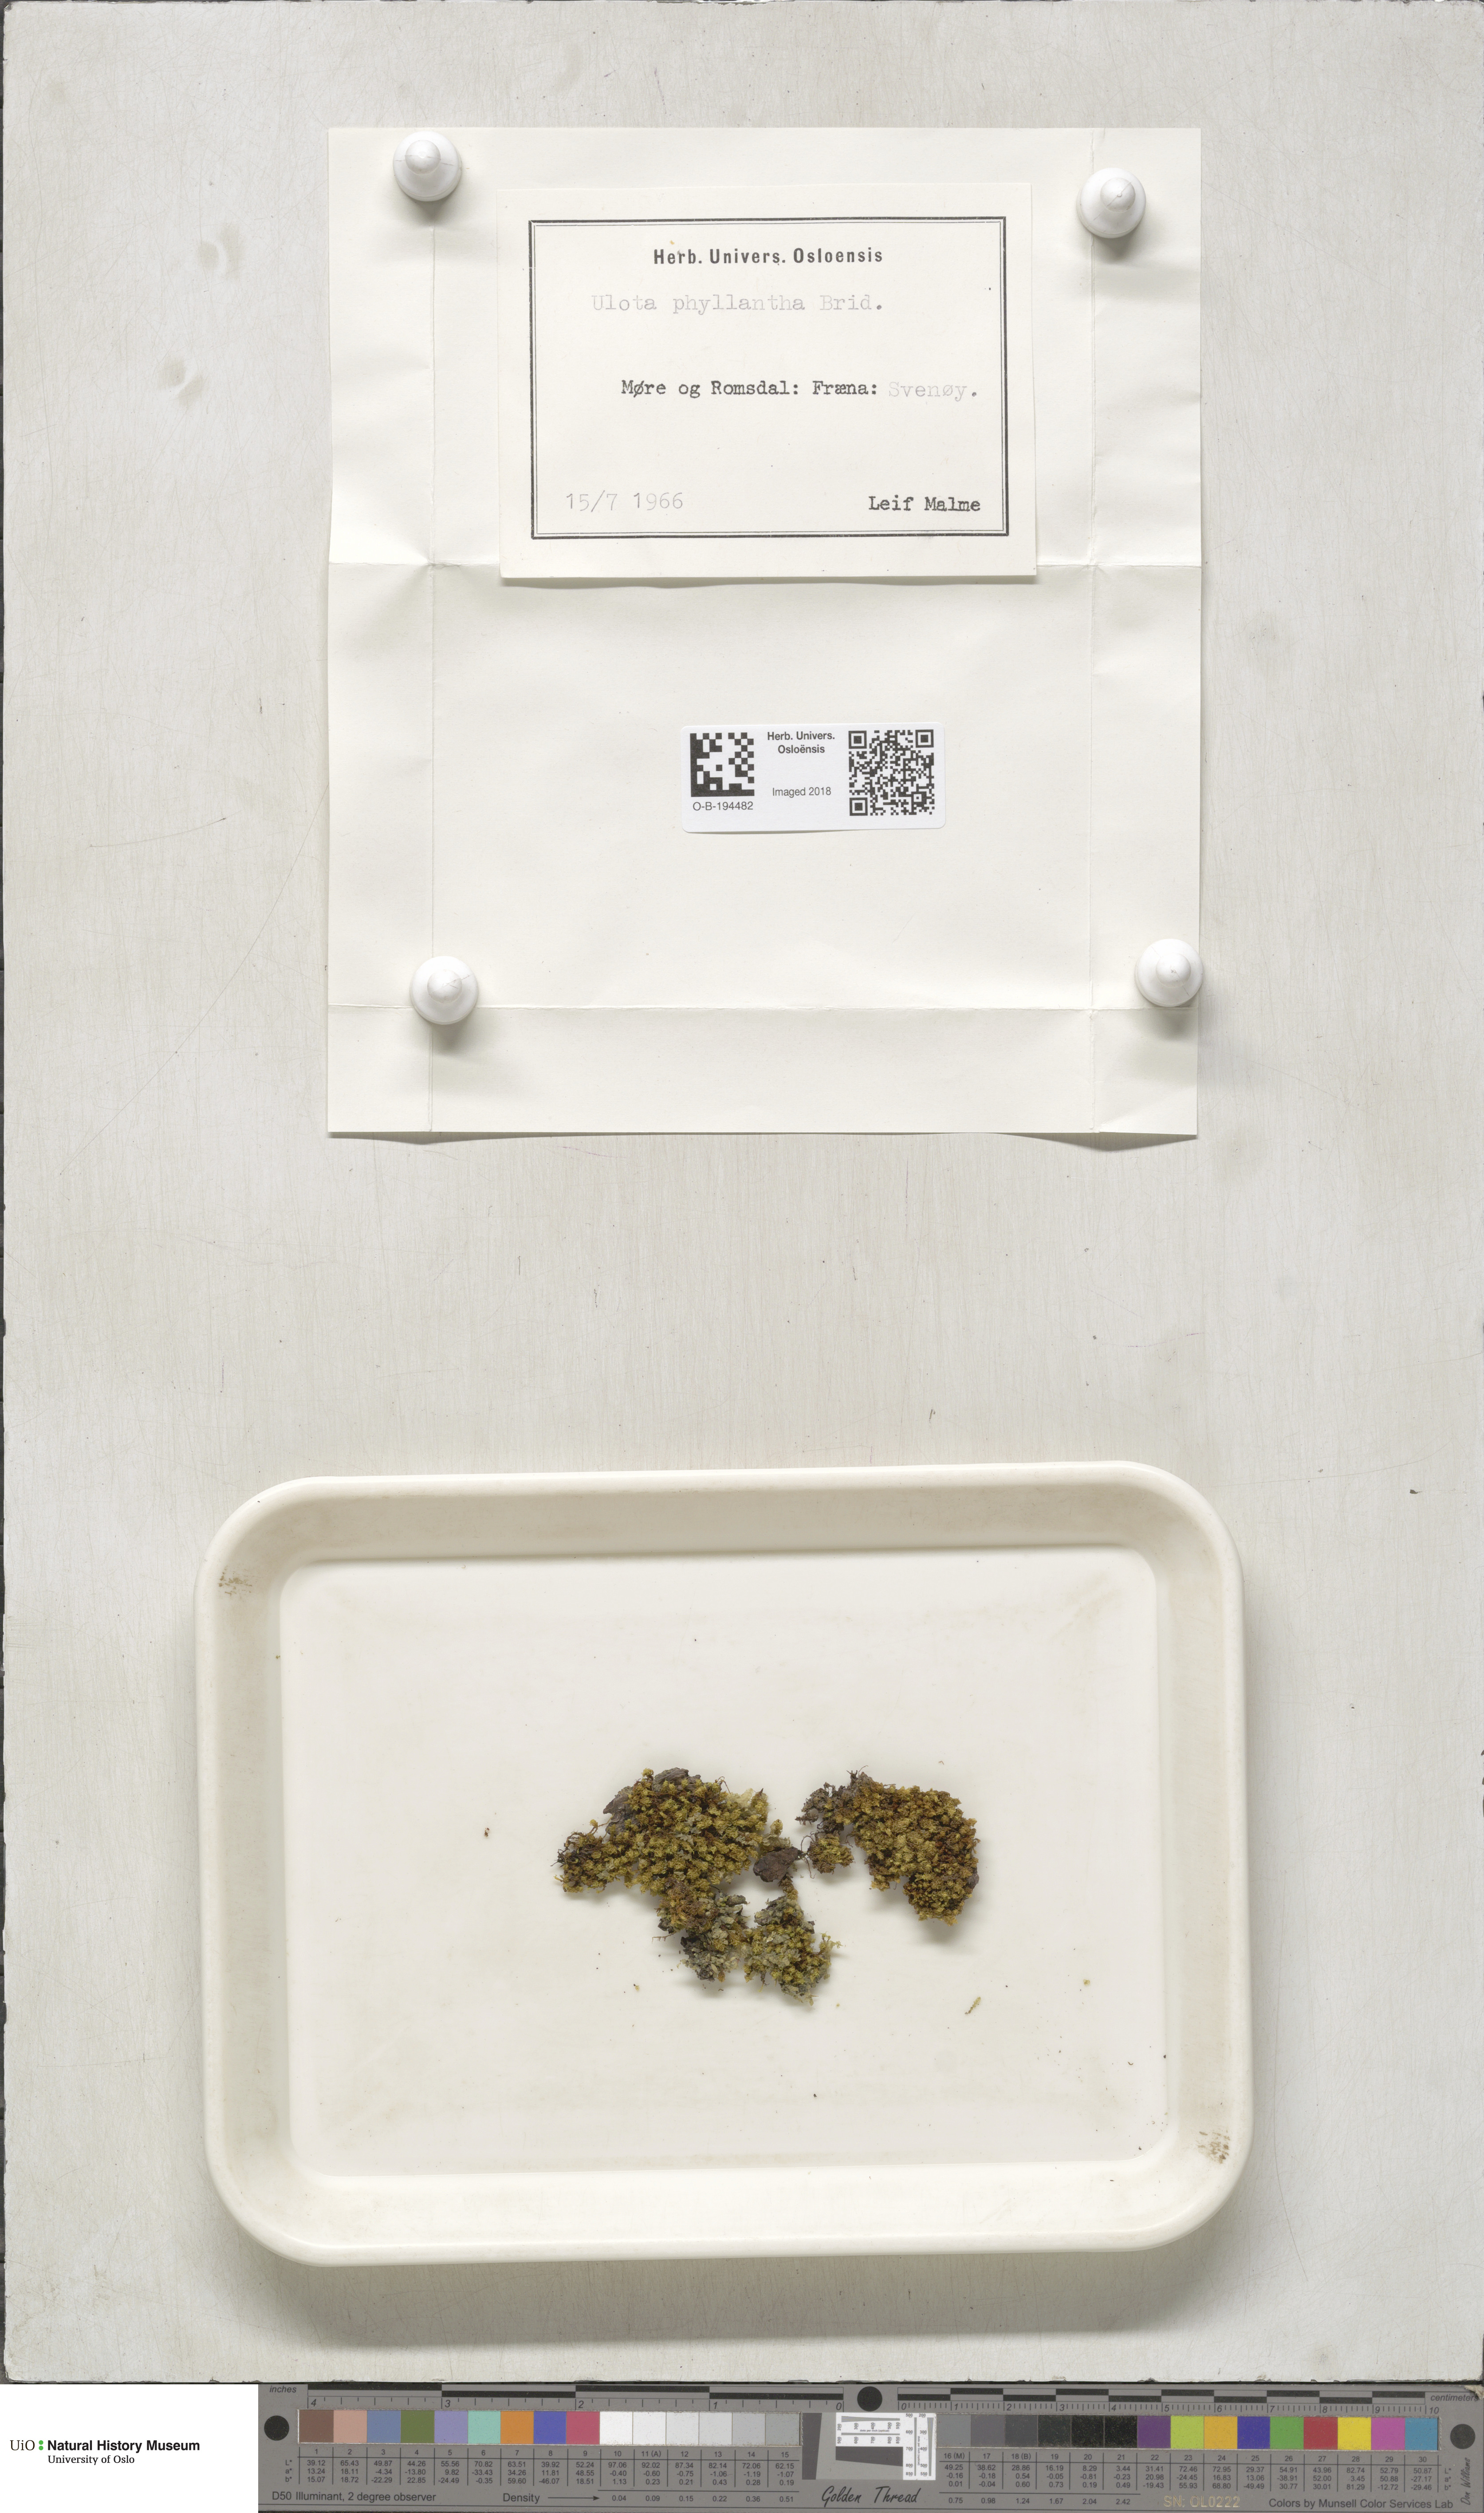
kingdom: Plantae
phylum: Bryophyta
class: Bryopsida
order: Orthotrichales
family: Orthotrichaceae
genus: Plenogemma
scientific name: Plenogemma phyllantha
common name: Frizzled pincushion
